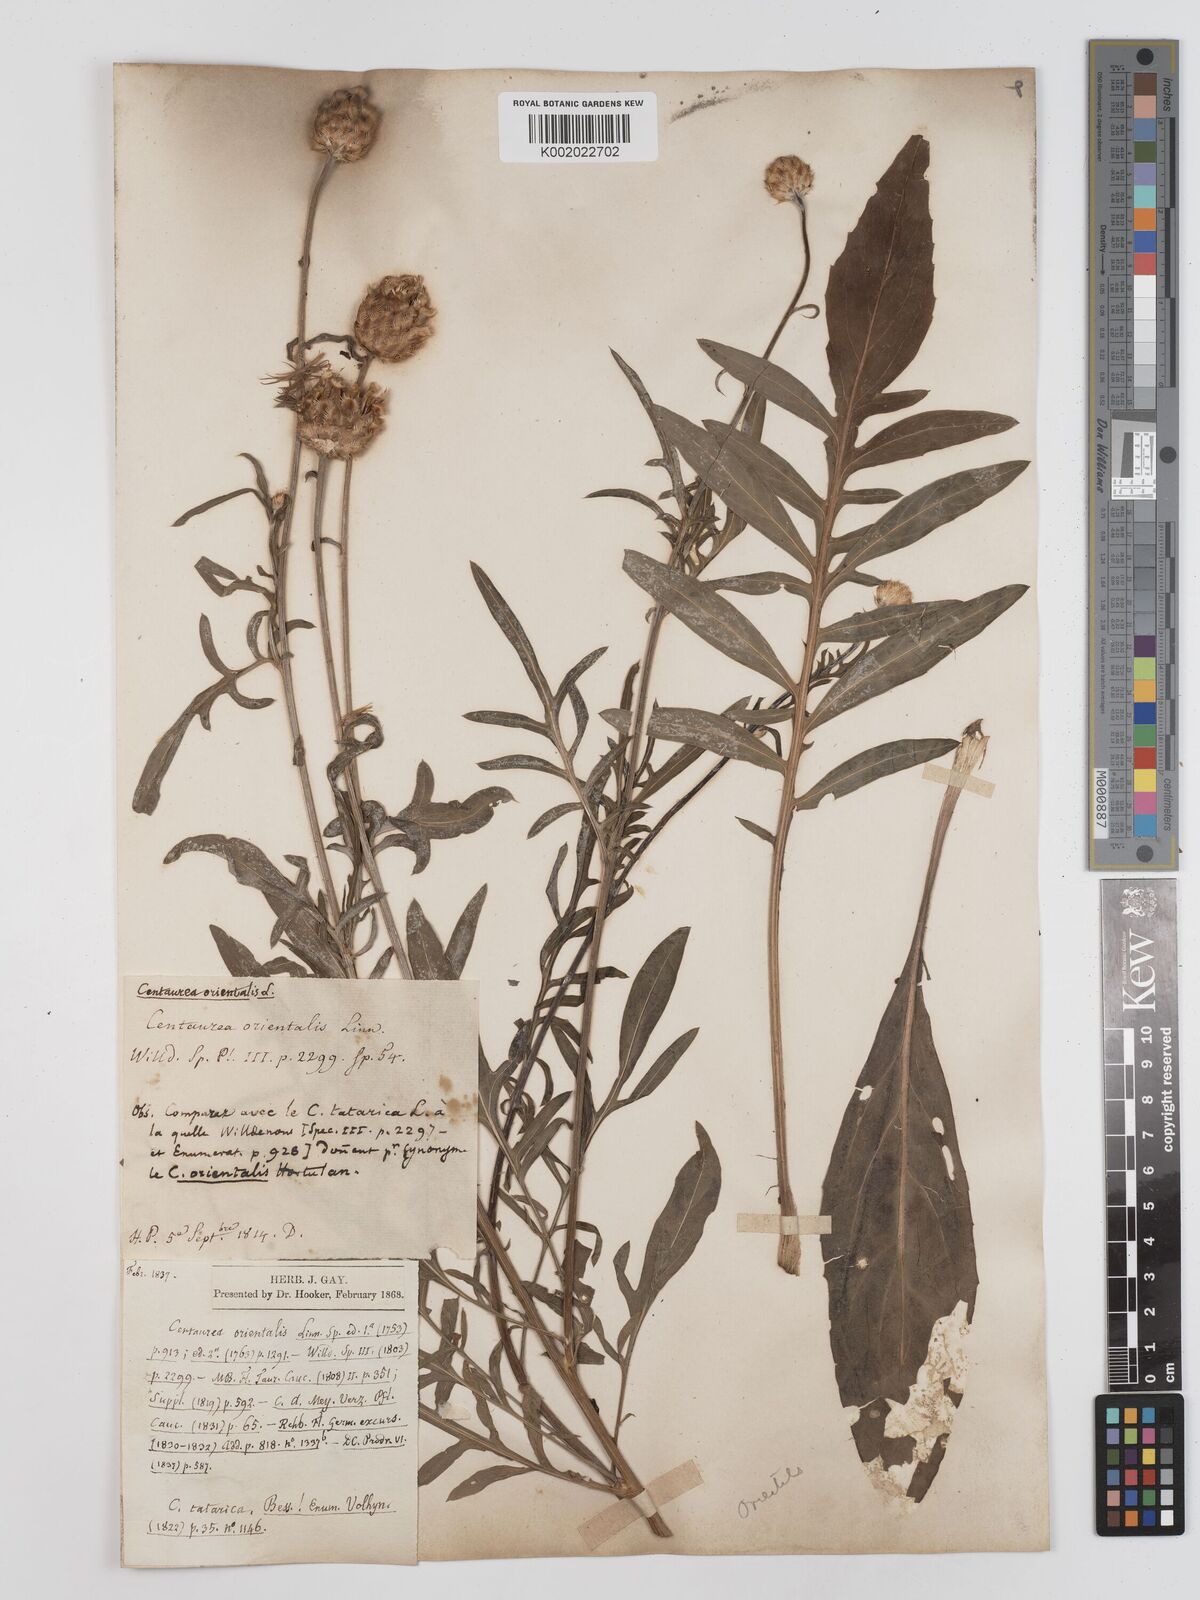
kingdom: Plantae
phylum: Tracheophyta
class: Magnoliopsida
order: Asterales
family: Asteraceae
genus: Centaurea
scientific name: Centaurea orientalis
